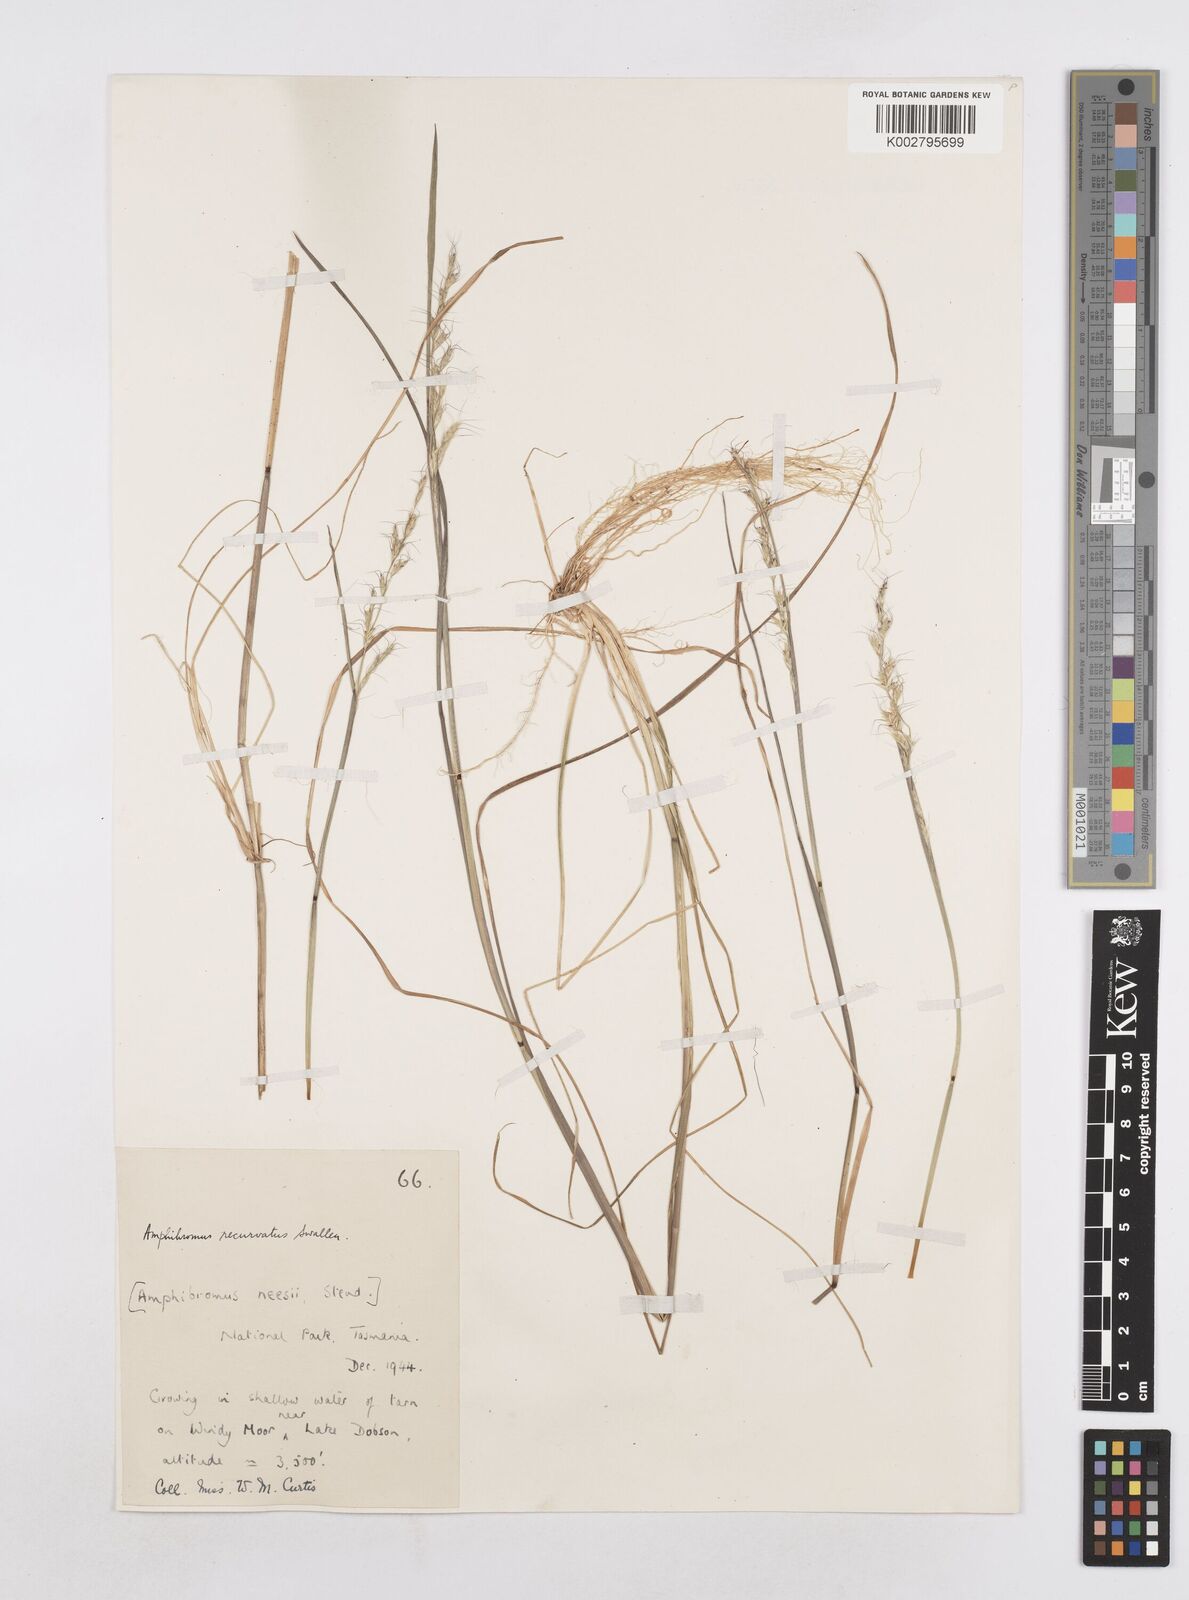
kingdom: Plantae
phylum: Tracheophyta
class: Liliopsida
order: Poales
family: Poaceae
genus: Amphibromus
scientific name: Amphibromus recurvatus
